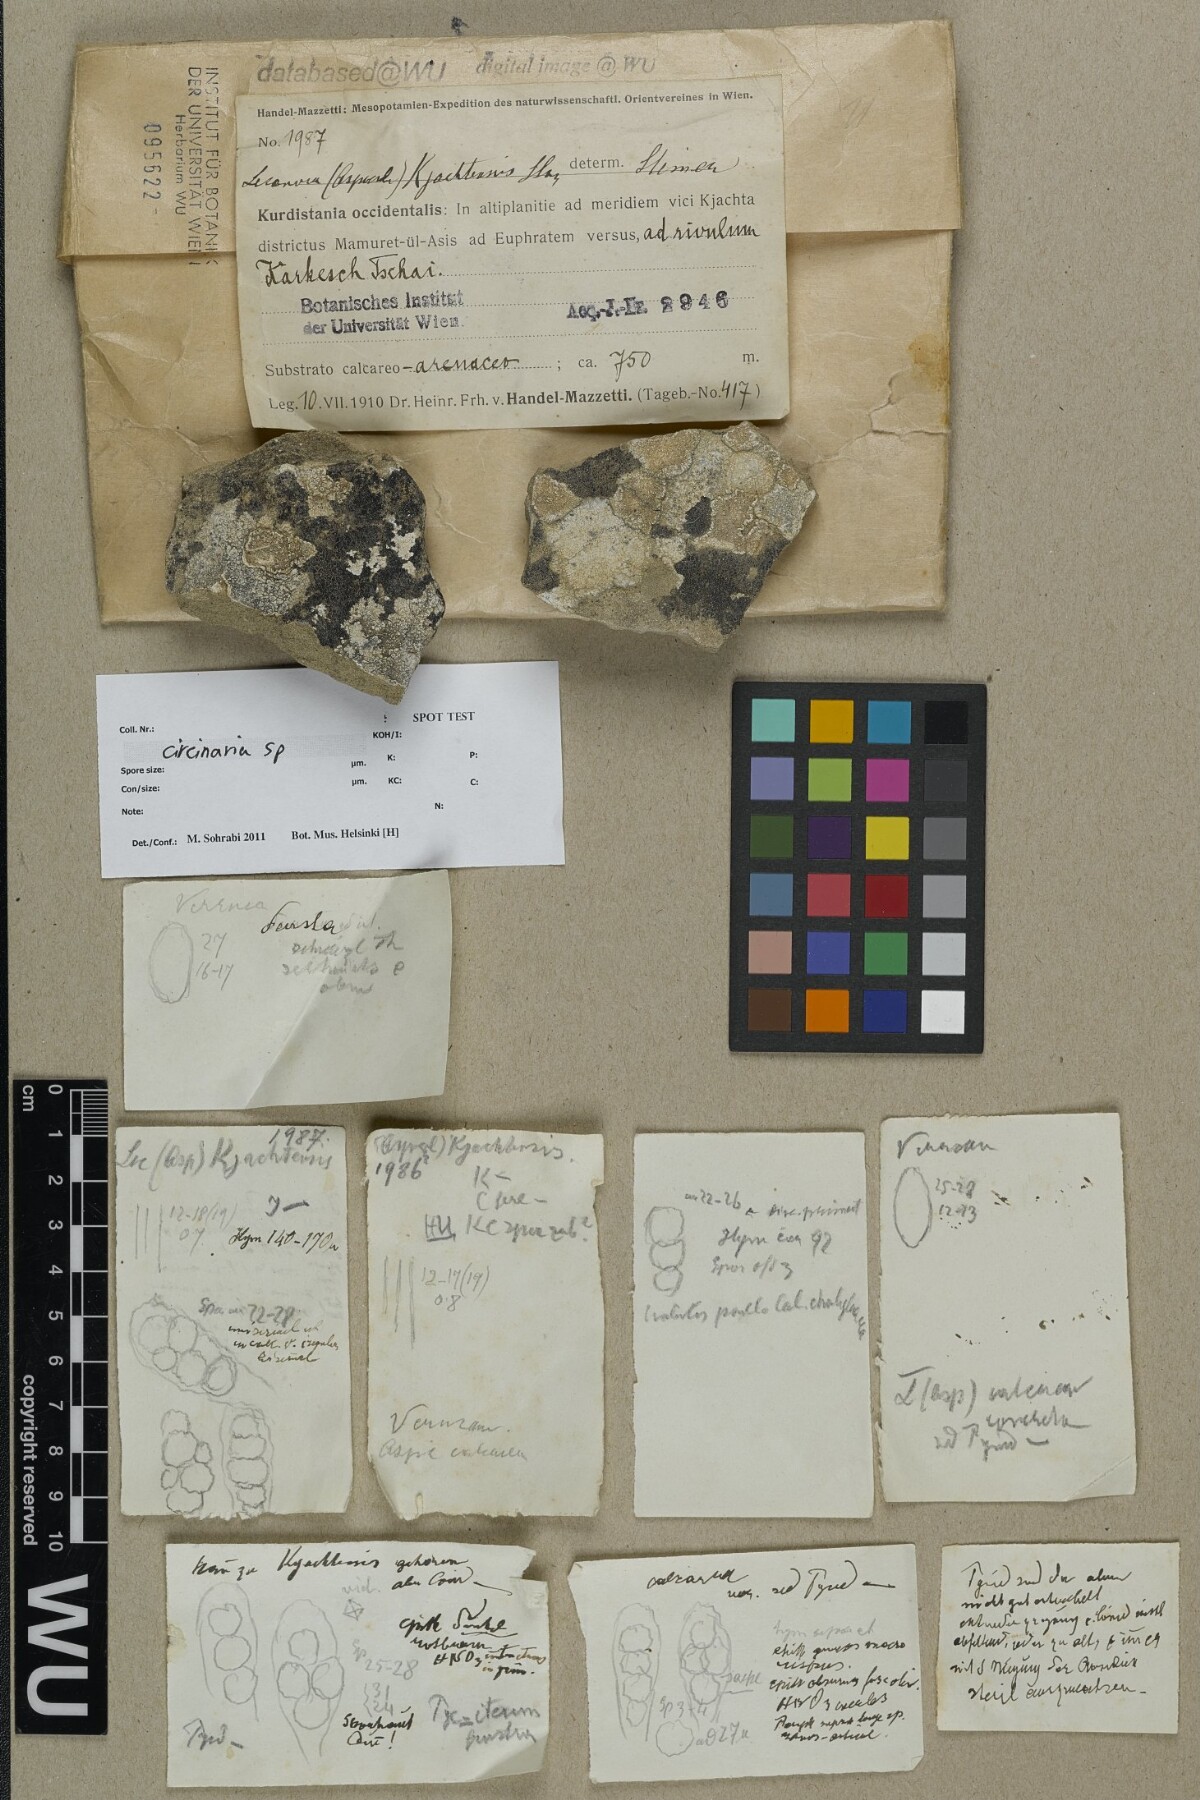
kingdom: Fungi
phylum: Ascomycota
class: Lecanoromycetes
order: Pertusariales
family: Megasporaceae
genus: Circinaria
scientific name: Circinaria
